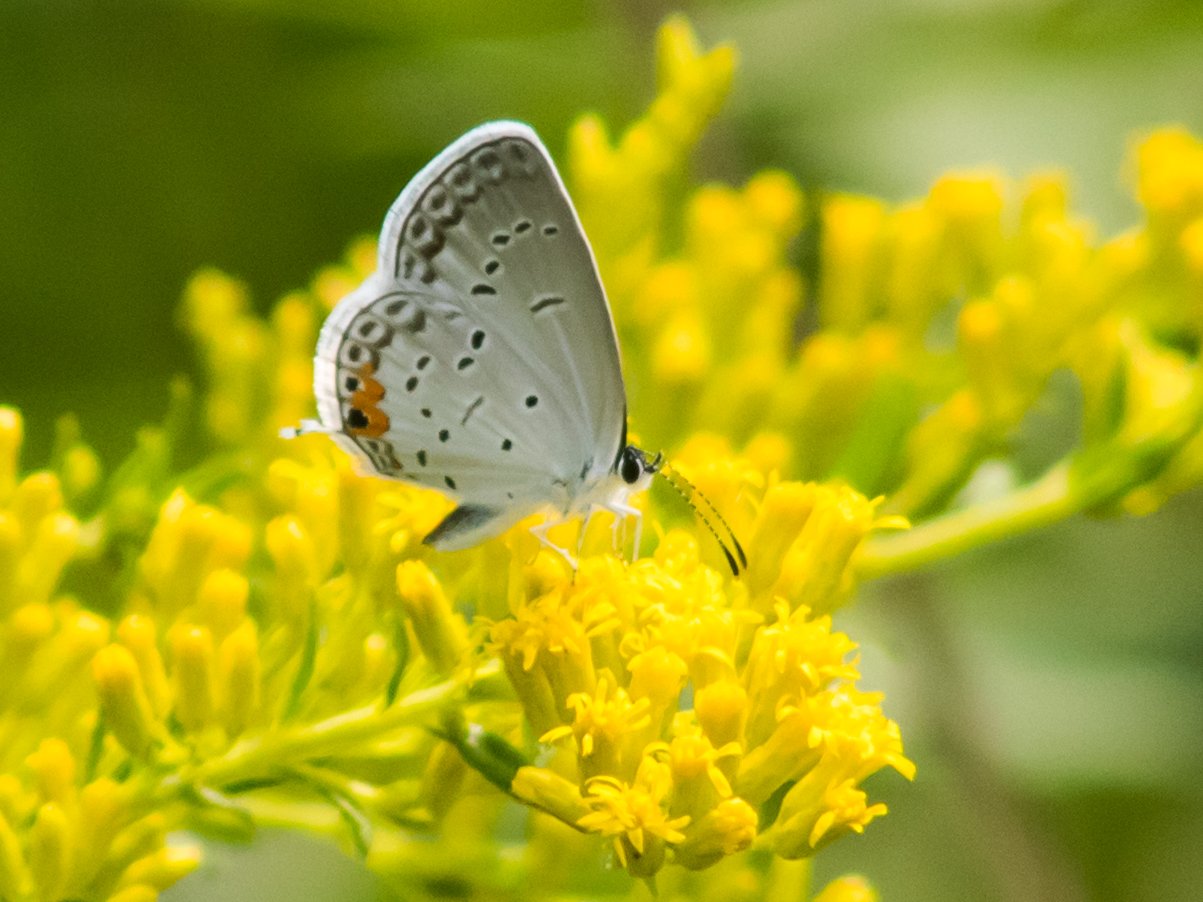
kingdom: Animalia
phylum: Arthropoda
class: Insecta
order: Lepidoptera
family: Lycaenidae
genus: Elkalyce
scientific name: Elkalyce comyntas
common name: Eastern Tailed-Blue
